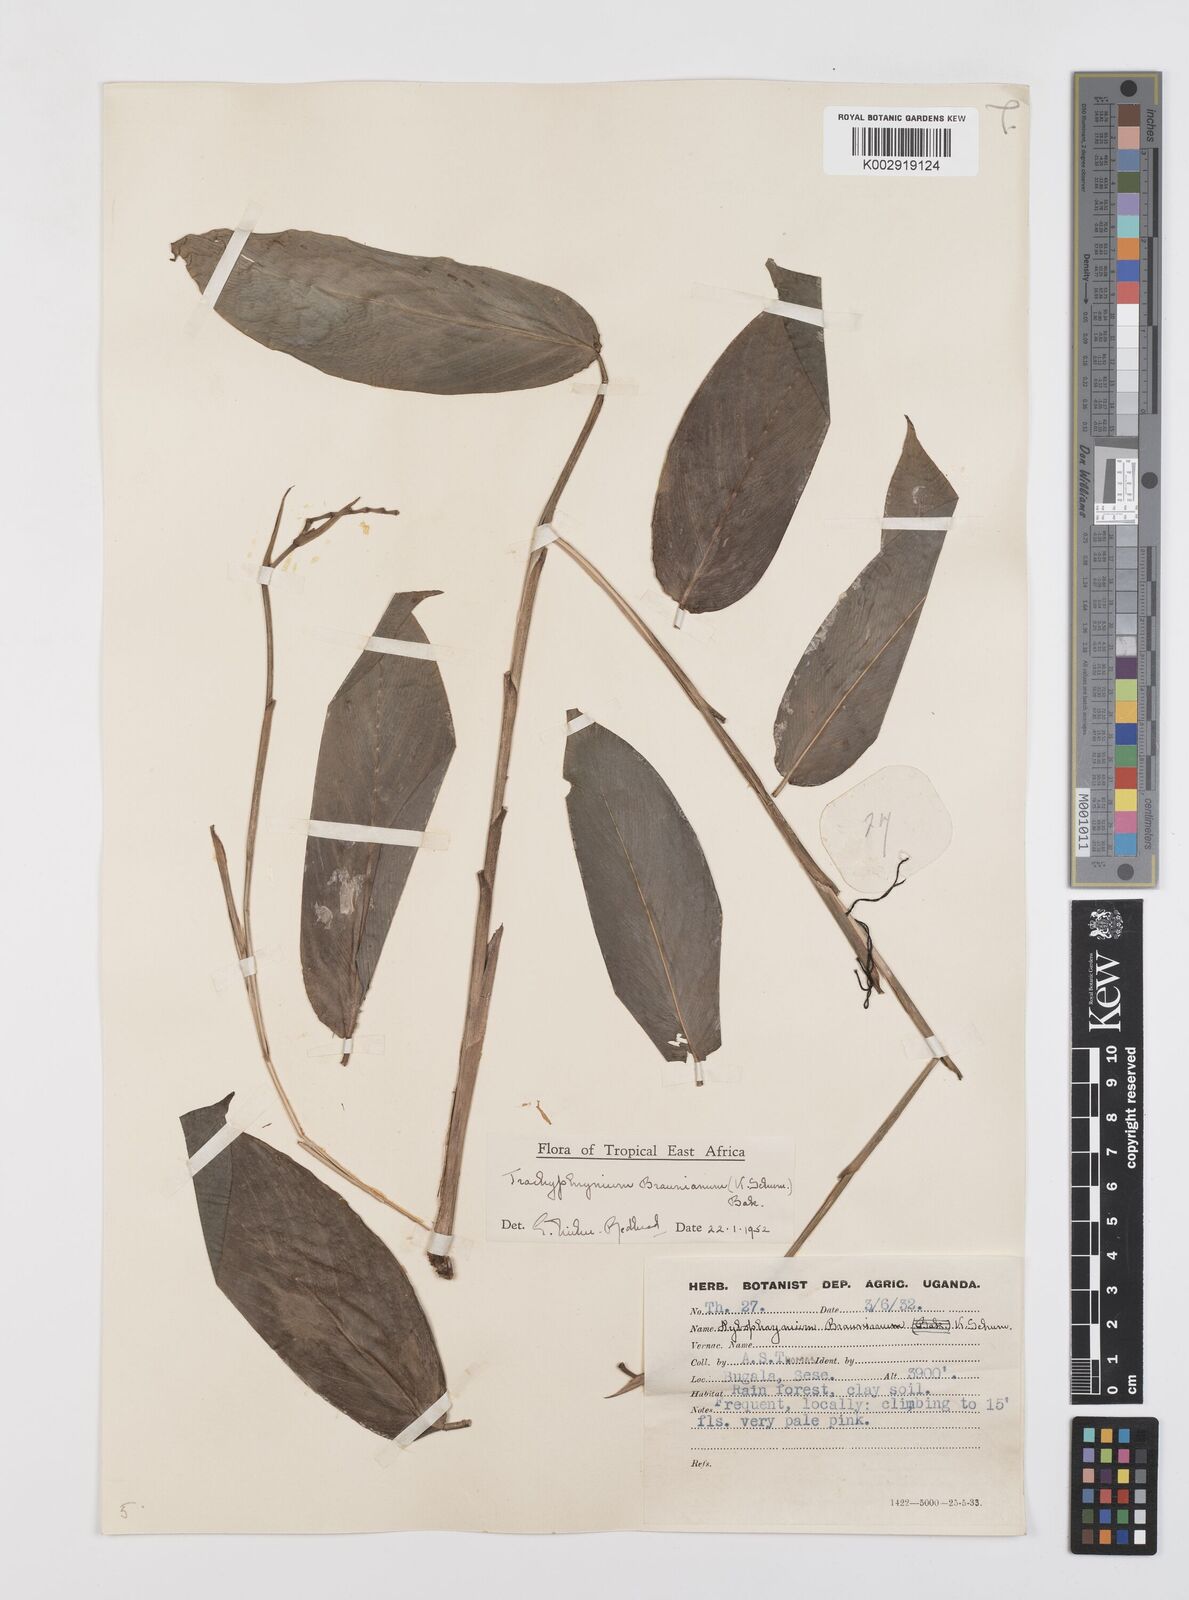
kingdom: Plantae
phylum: Tracheophyta
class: Liliopsida
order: Zingiberales
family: Marantaceae
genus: Trachyphrynium
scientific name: Trachyphrynium braunianum
